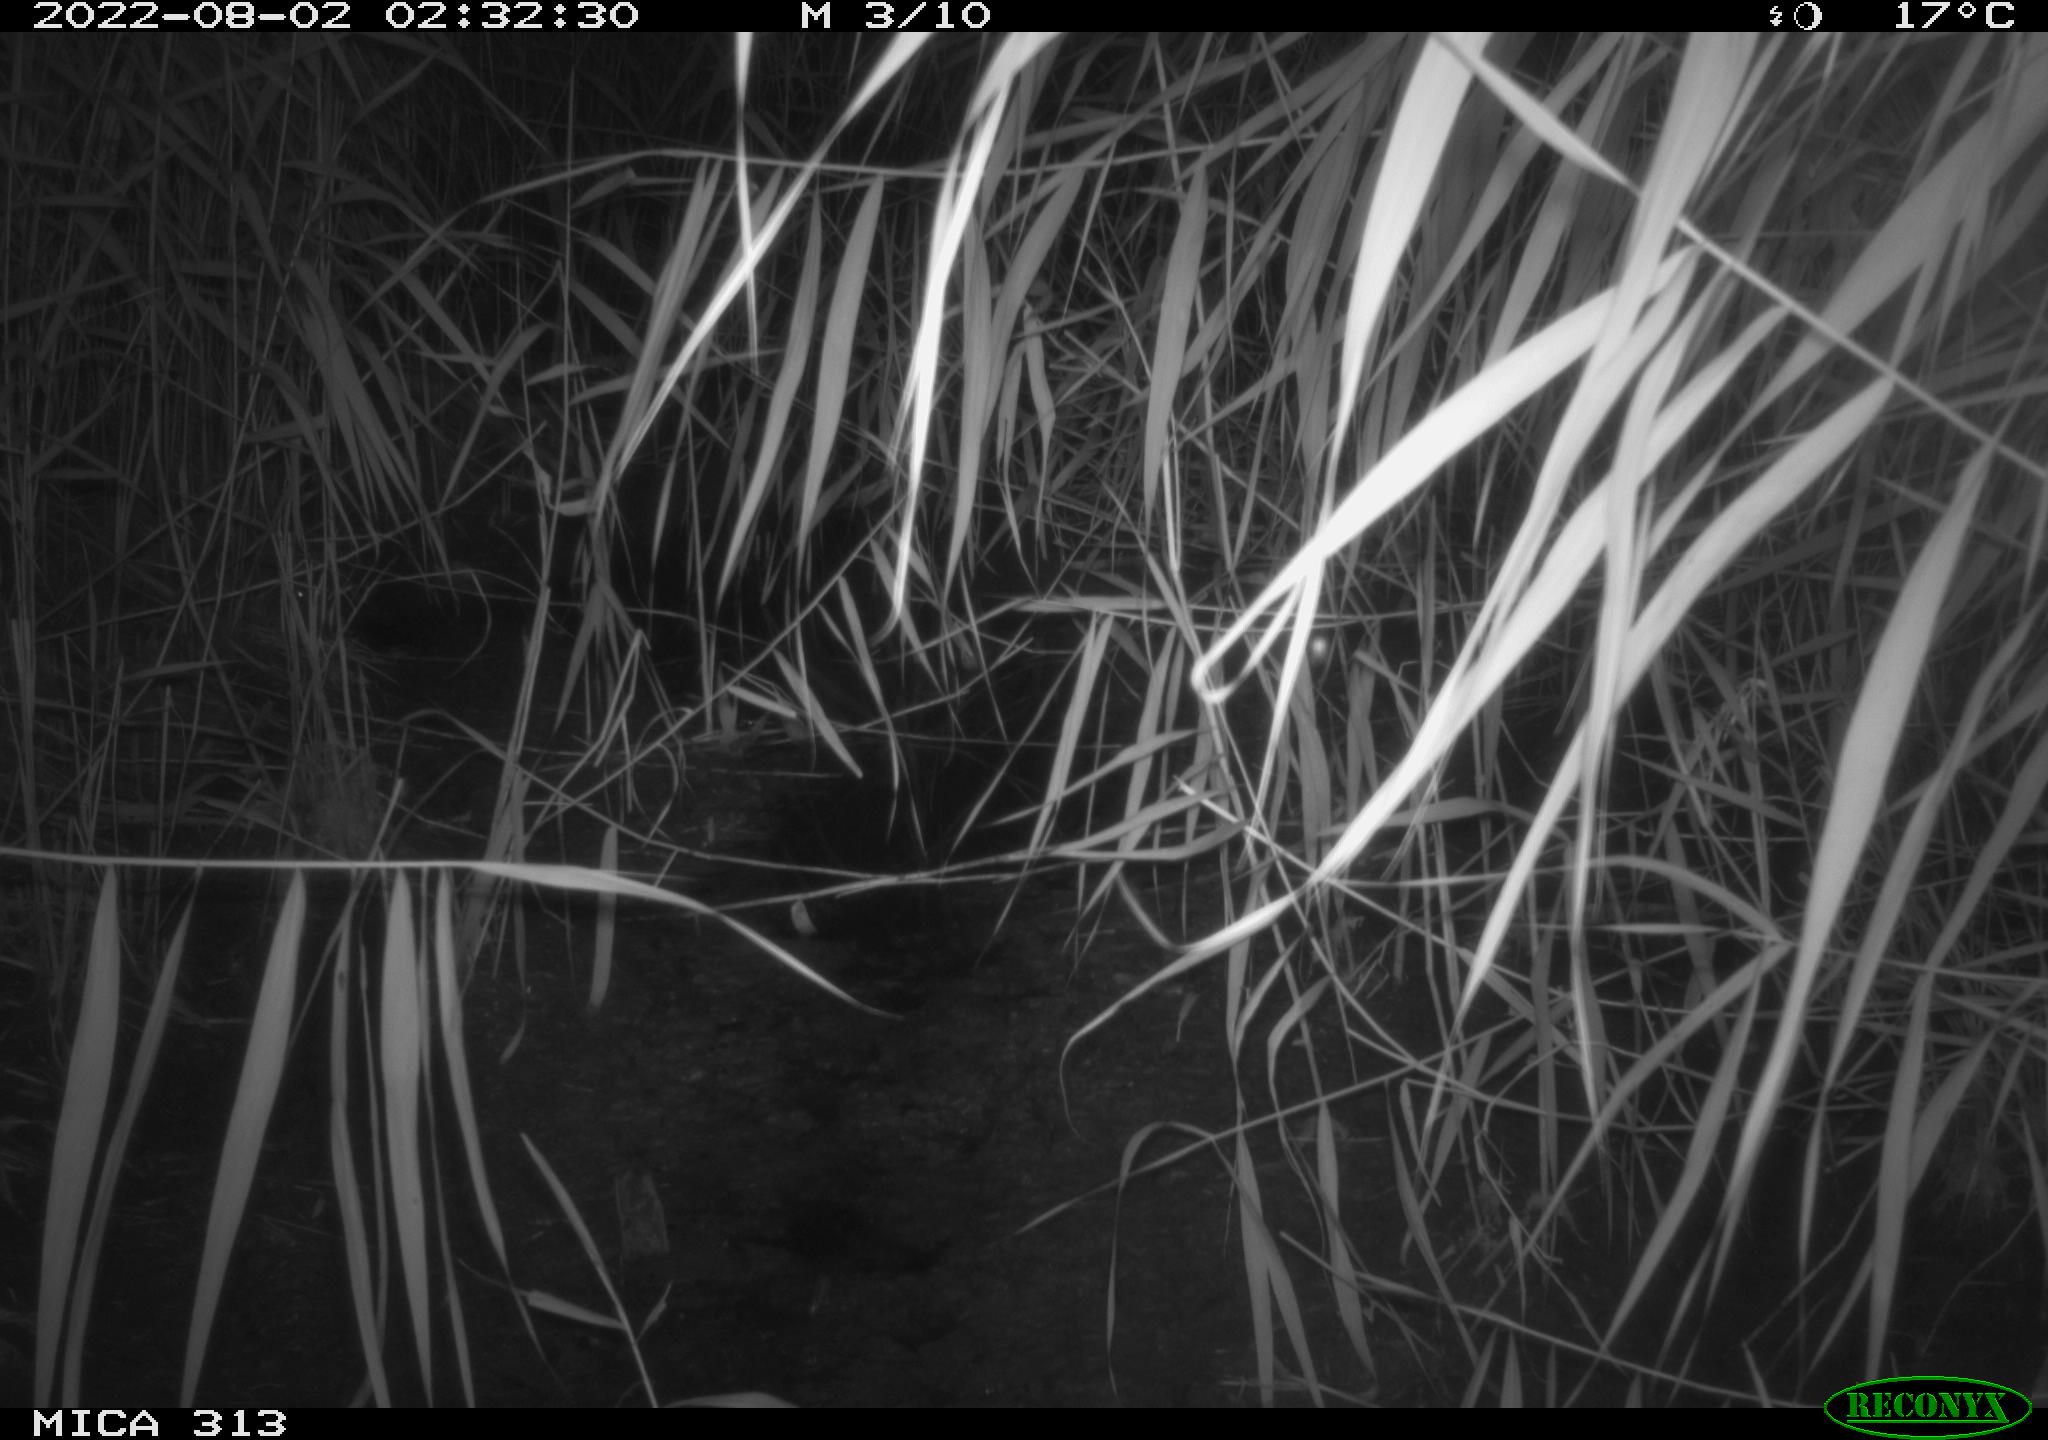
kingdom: Animalia
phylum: Chordata
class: Mammalia
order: Rodentia
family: Muridae
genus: Rattus
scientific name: Rattus norvegicus
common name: Brown rat
